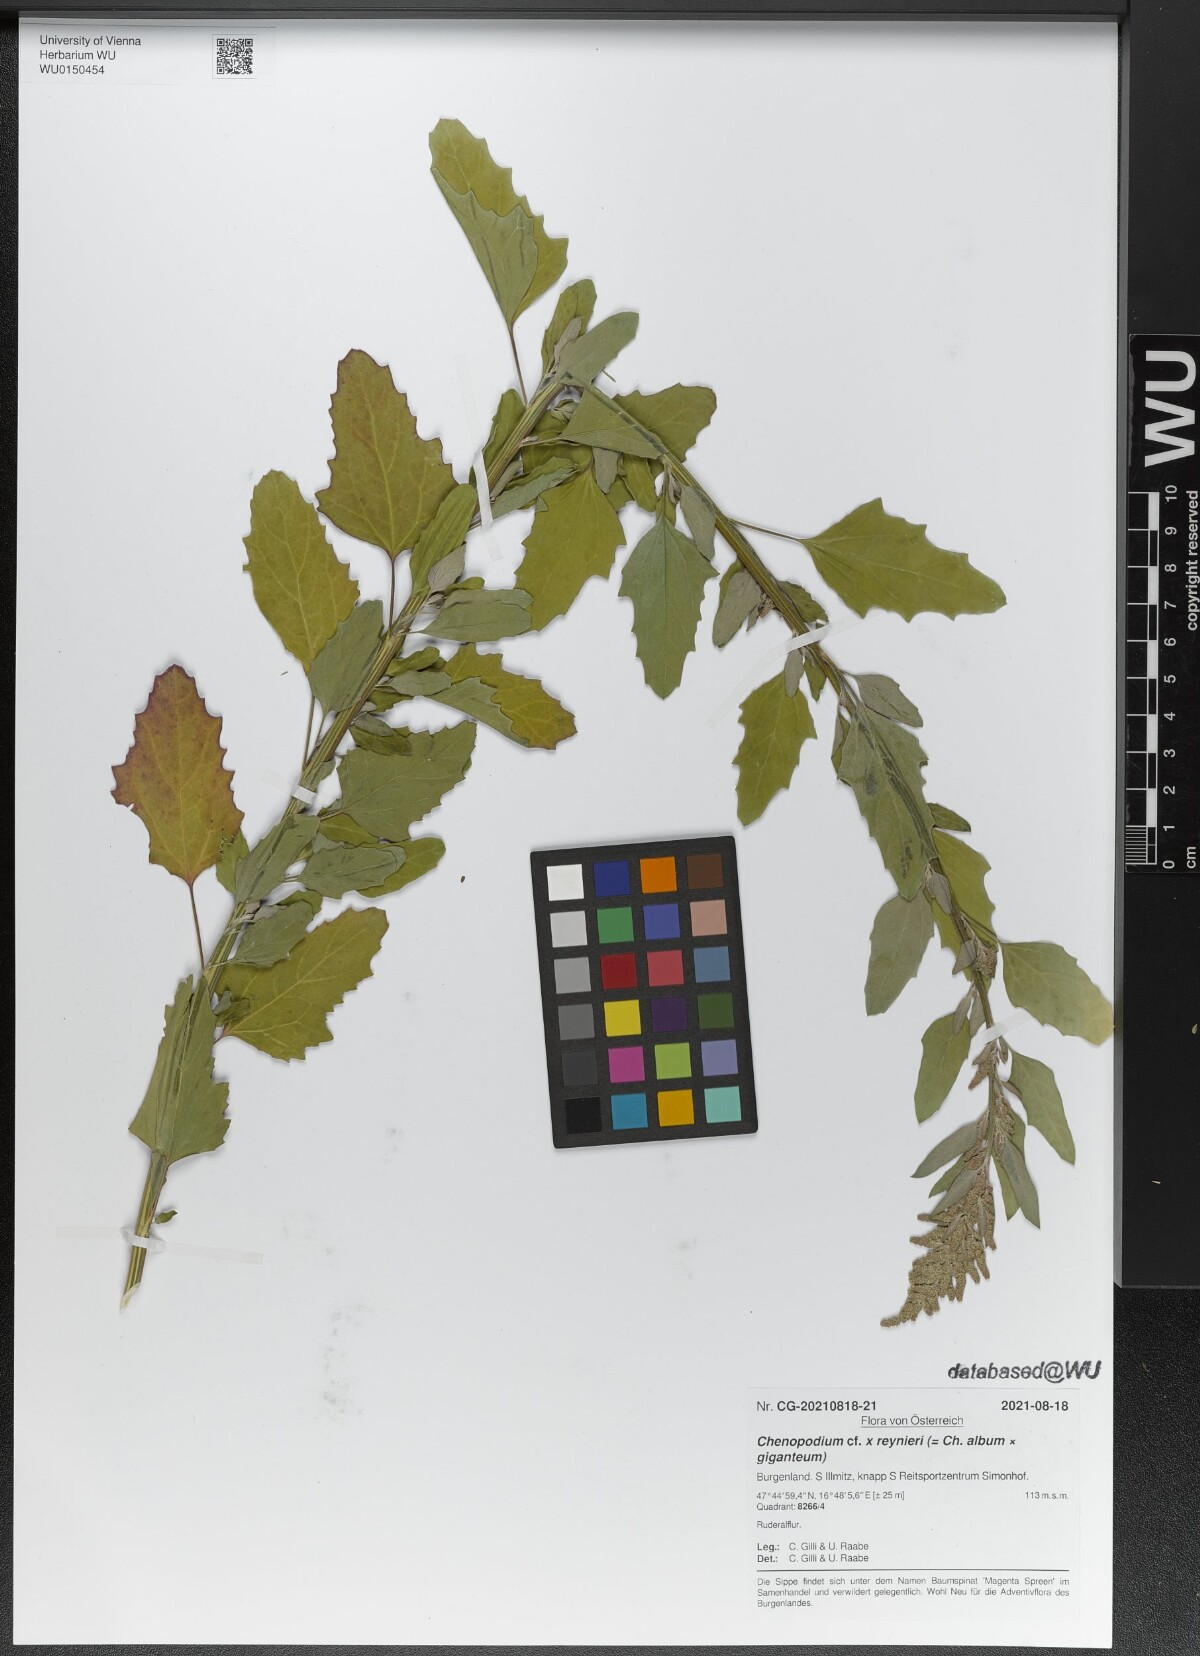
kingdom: Plantae
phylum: Tracheophyta
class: Magnoliopsida
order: Caryophyllales
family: Amaranthaceae
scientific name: Amaranthaceae
